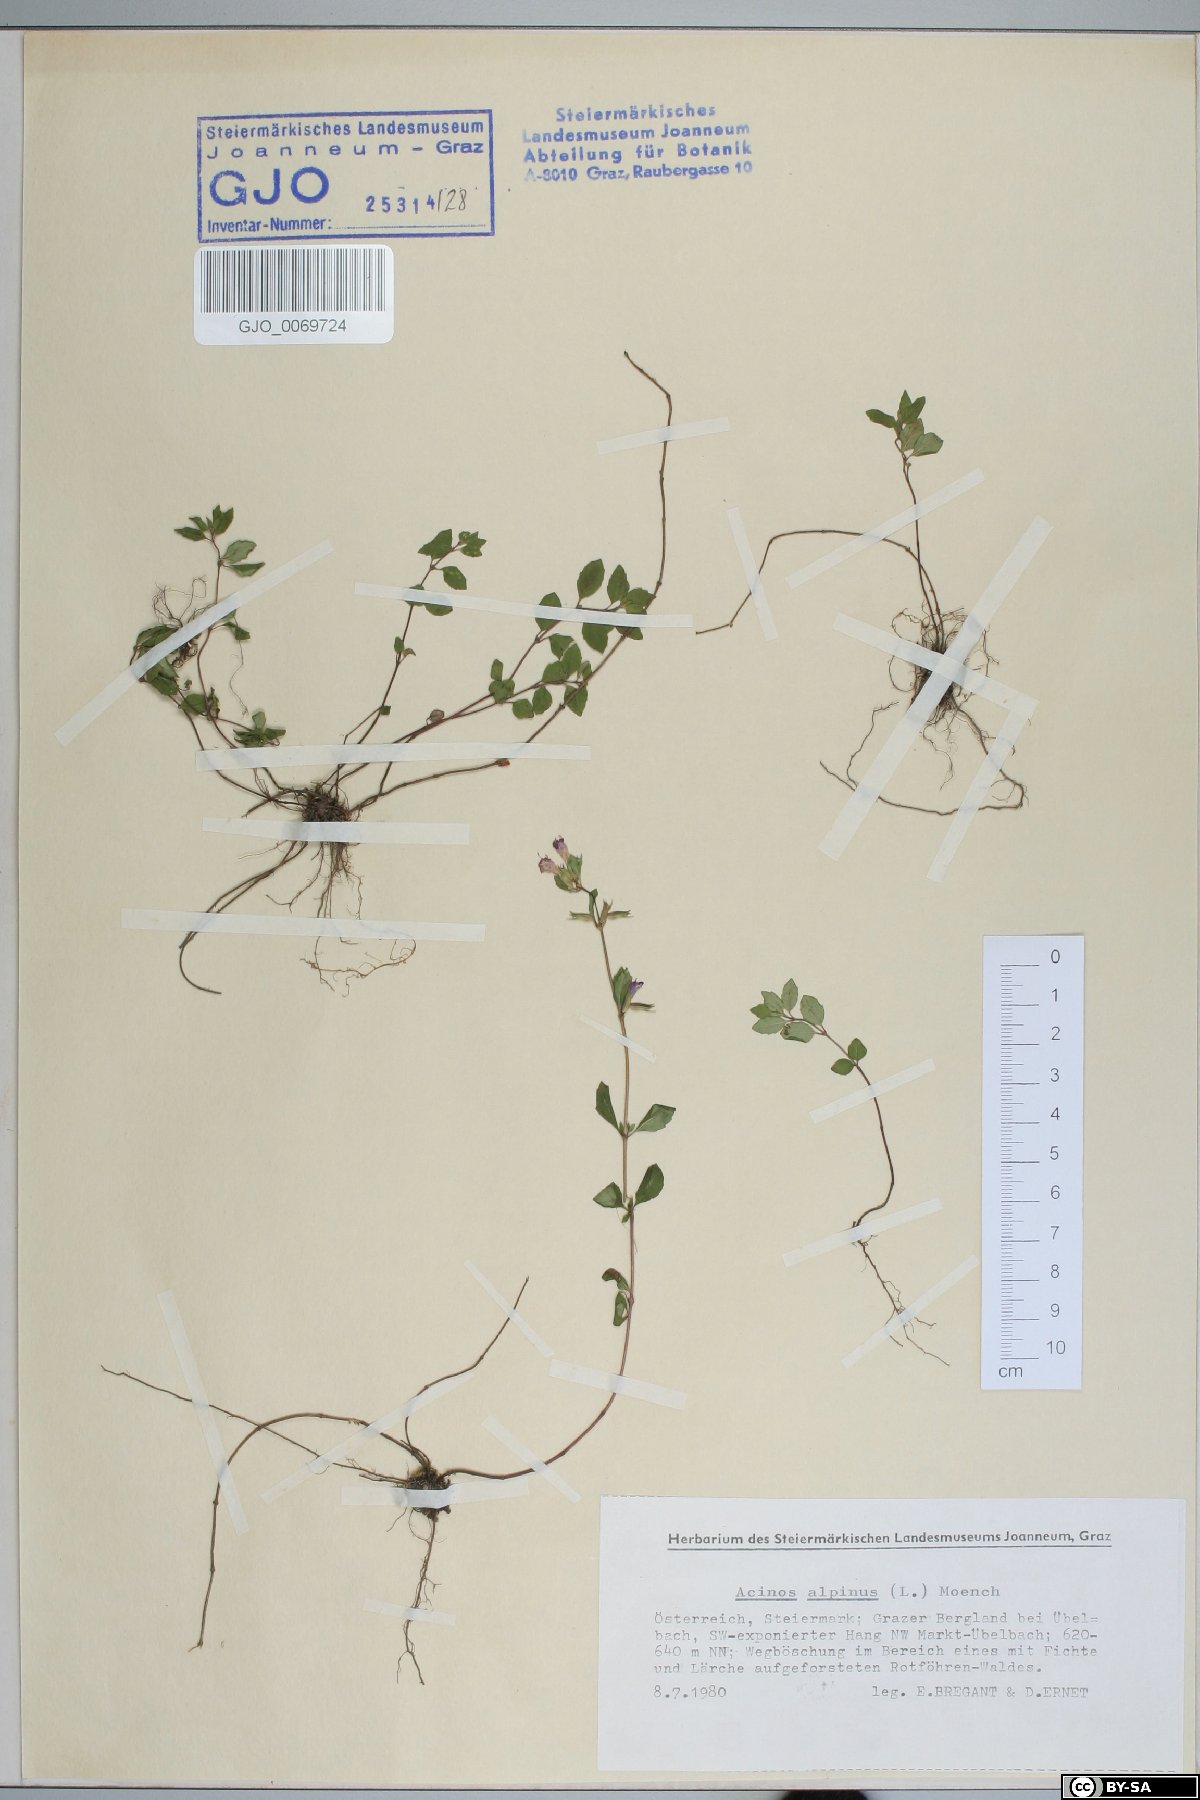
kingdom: Plantae
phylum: Tracheophyta
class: Magnoliopsida
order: Lamiales
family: Lamiaceae
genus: Clinopodium
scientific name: Clinopodium alpinum
